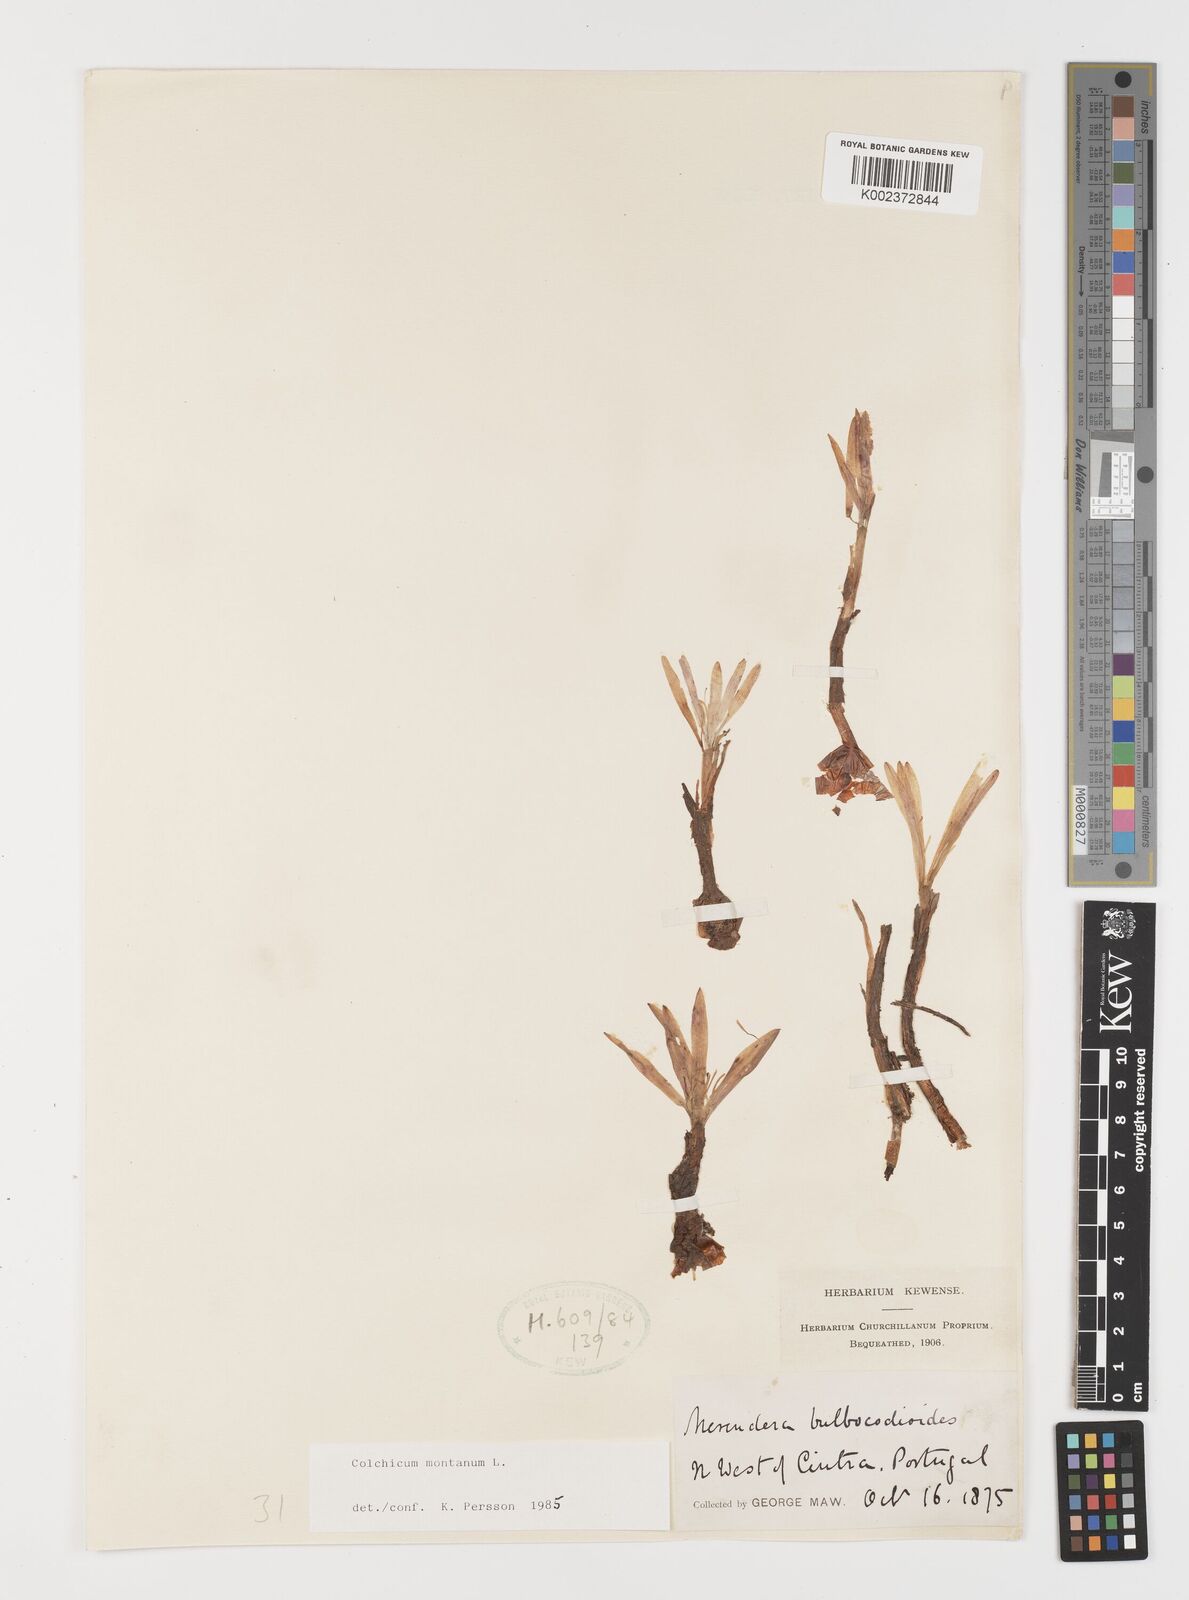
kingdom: Plantae
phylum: Tracheophyta
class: Liliopsida
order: Liliales
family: Colchicaceae
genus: Colchicum
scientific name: Colchicum montanum
